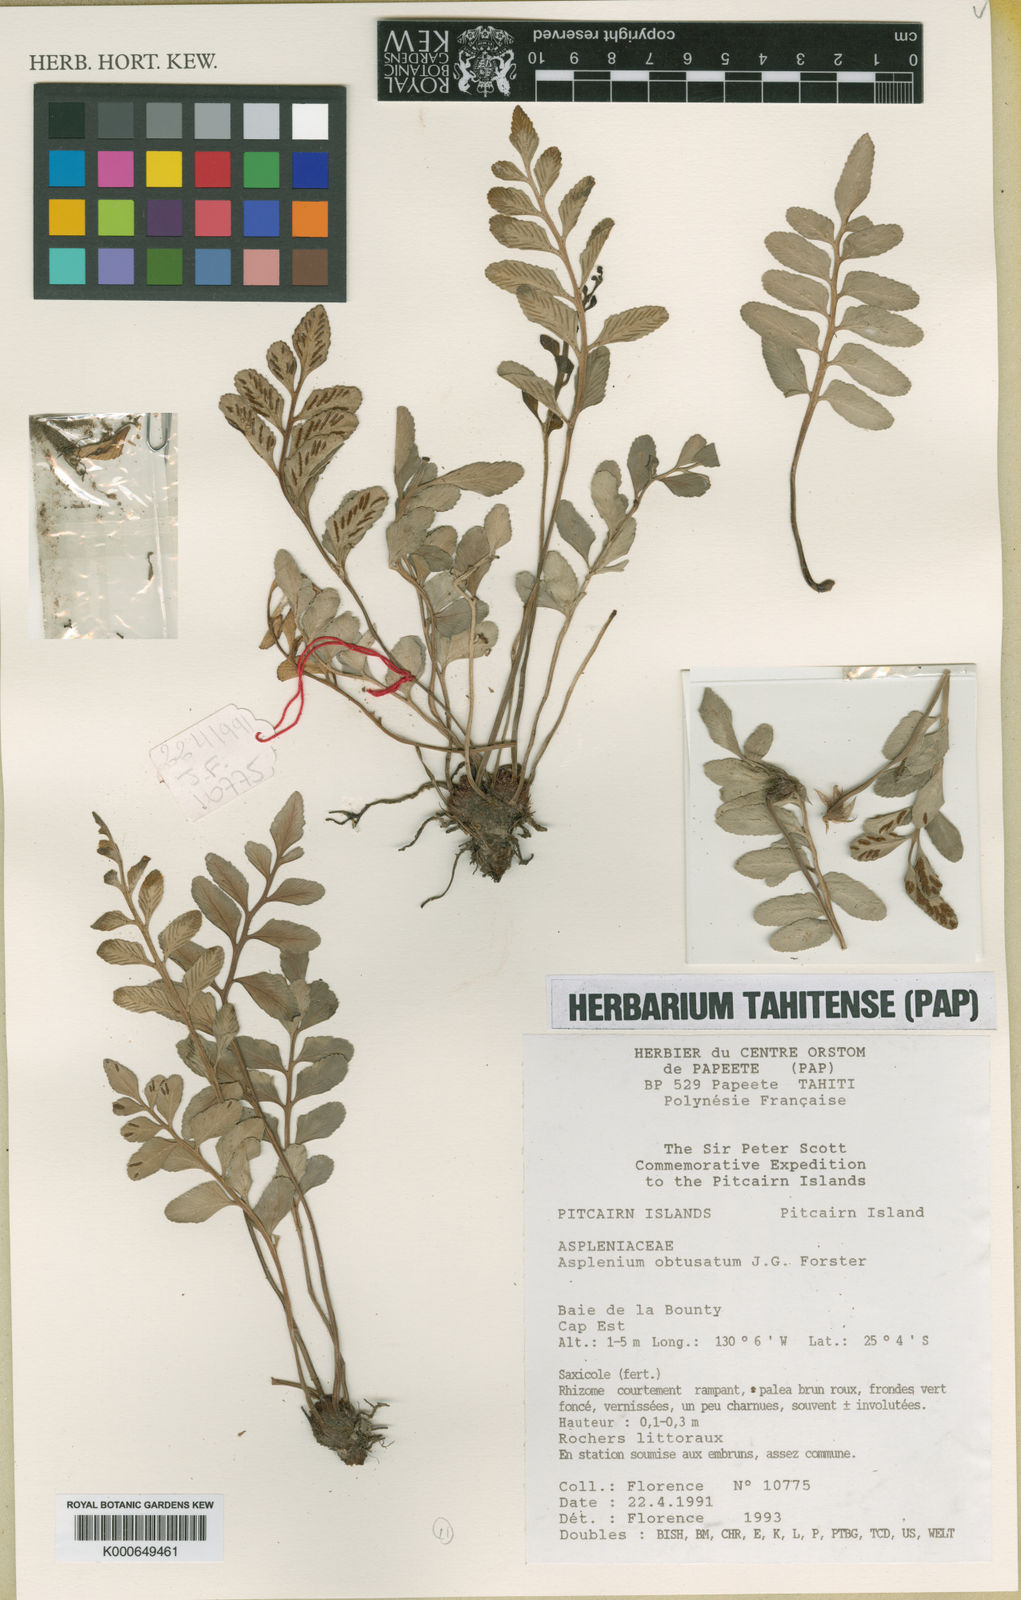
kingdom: Plantae
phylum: Tracheophyta
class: Polypodiopsida
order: Polypodiales
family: Aspleniaceae
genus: Asplenium
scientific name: Asplenium obtusatum
